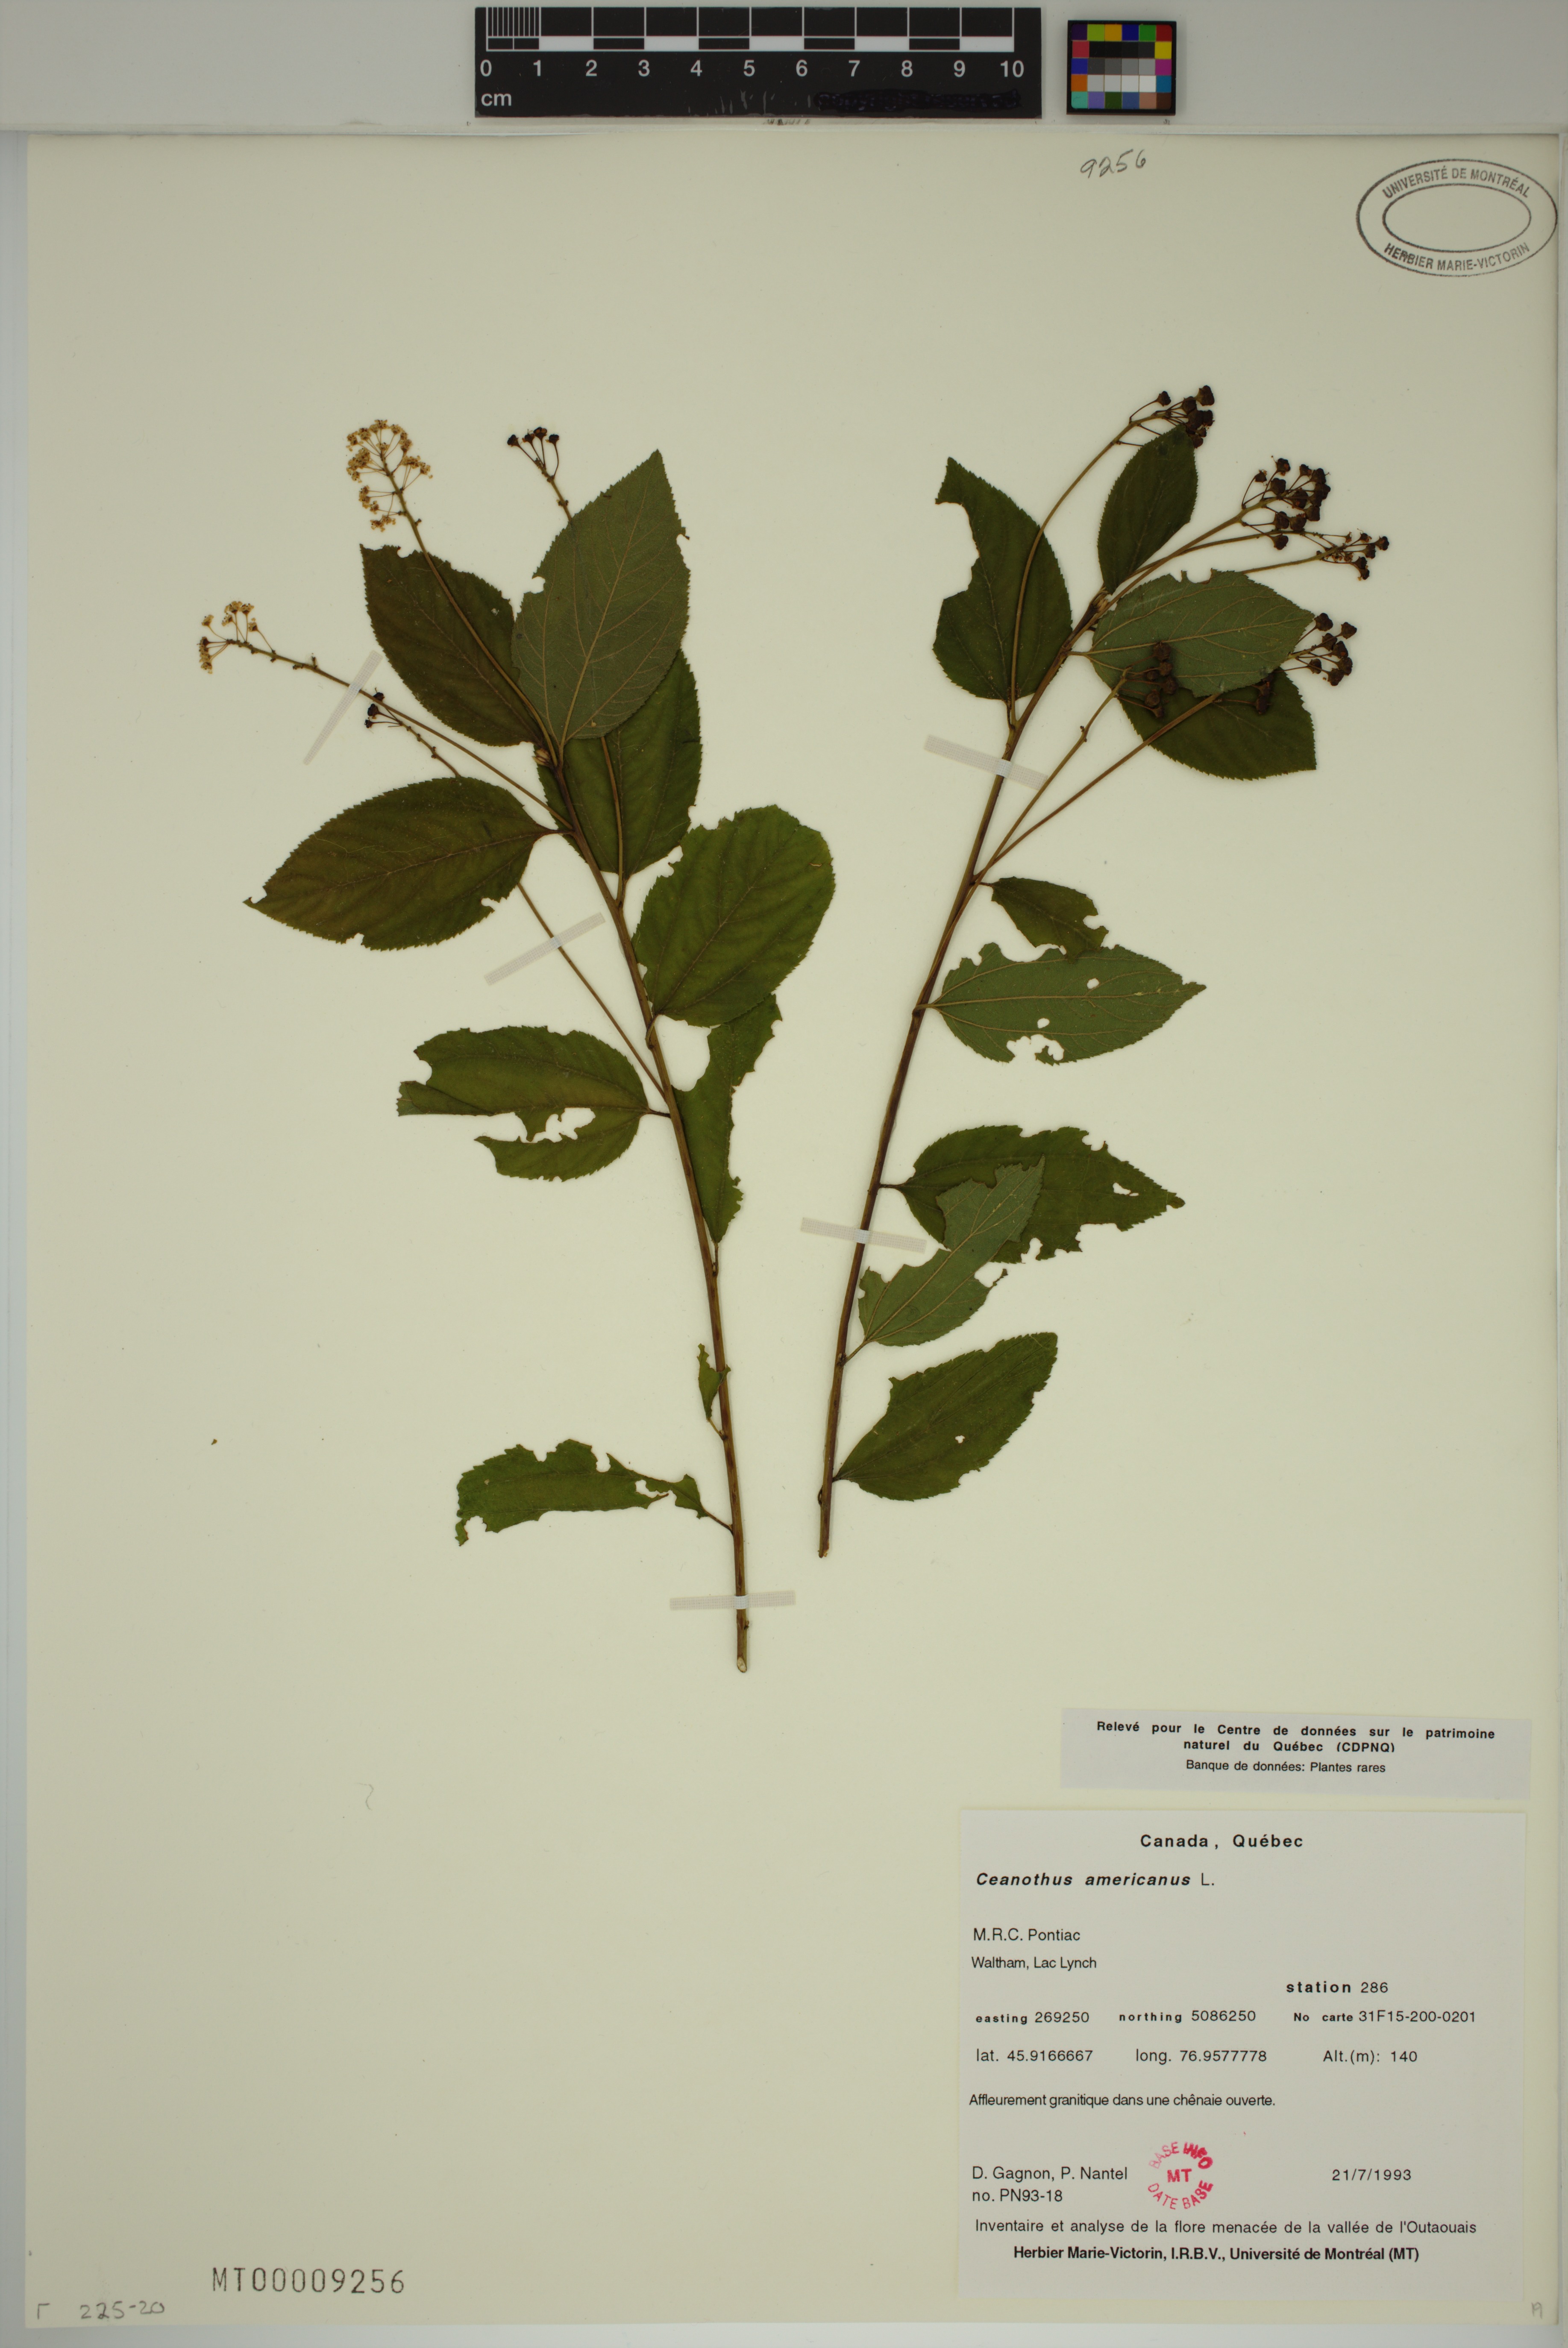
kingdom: Plantae
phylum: Tracheophyta
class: Magnoliopsida
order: Rosales
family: Rhamnaceae
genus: Ceanothus
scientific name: Ceanothus americanus
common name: Redroot
